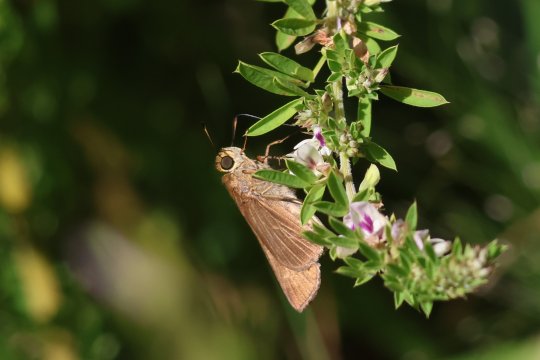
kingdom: Animalia
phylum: Arthropoda
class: Insecta
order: Lepidoptera
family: Hesperiidae
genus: Panoquina
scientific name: Panoquina ocola
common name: Ocola Skipper
